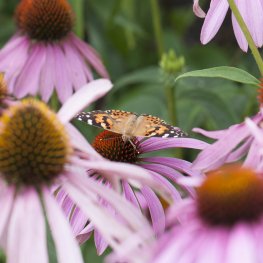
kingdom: Animalia
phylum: Arthropoda
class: Insecta
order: Lepidoptera
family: Nymphalidae
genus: Vanessa
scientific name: Vanessa cardui
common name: Painted Lady
